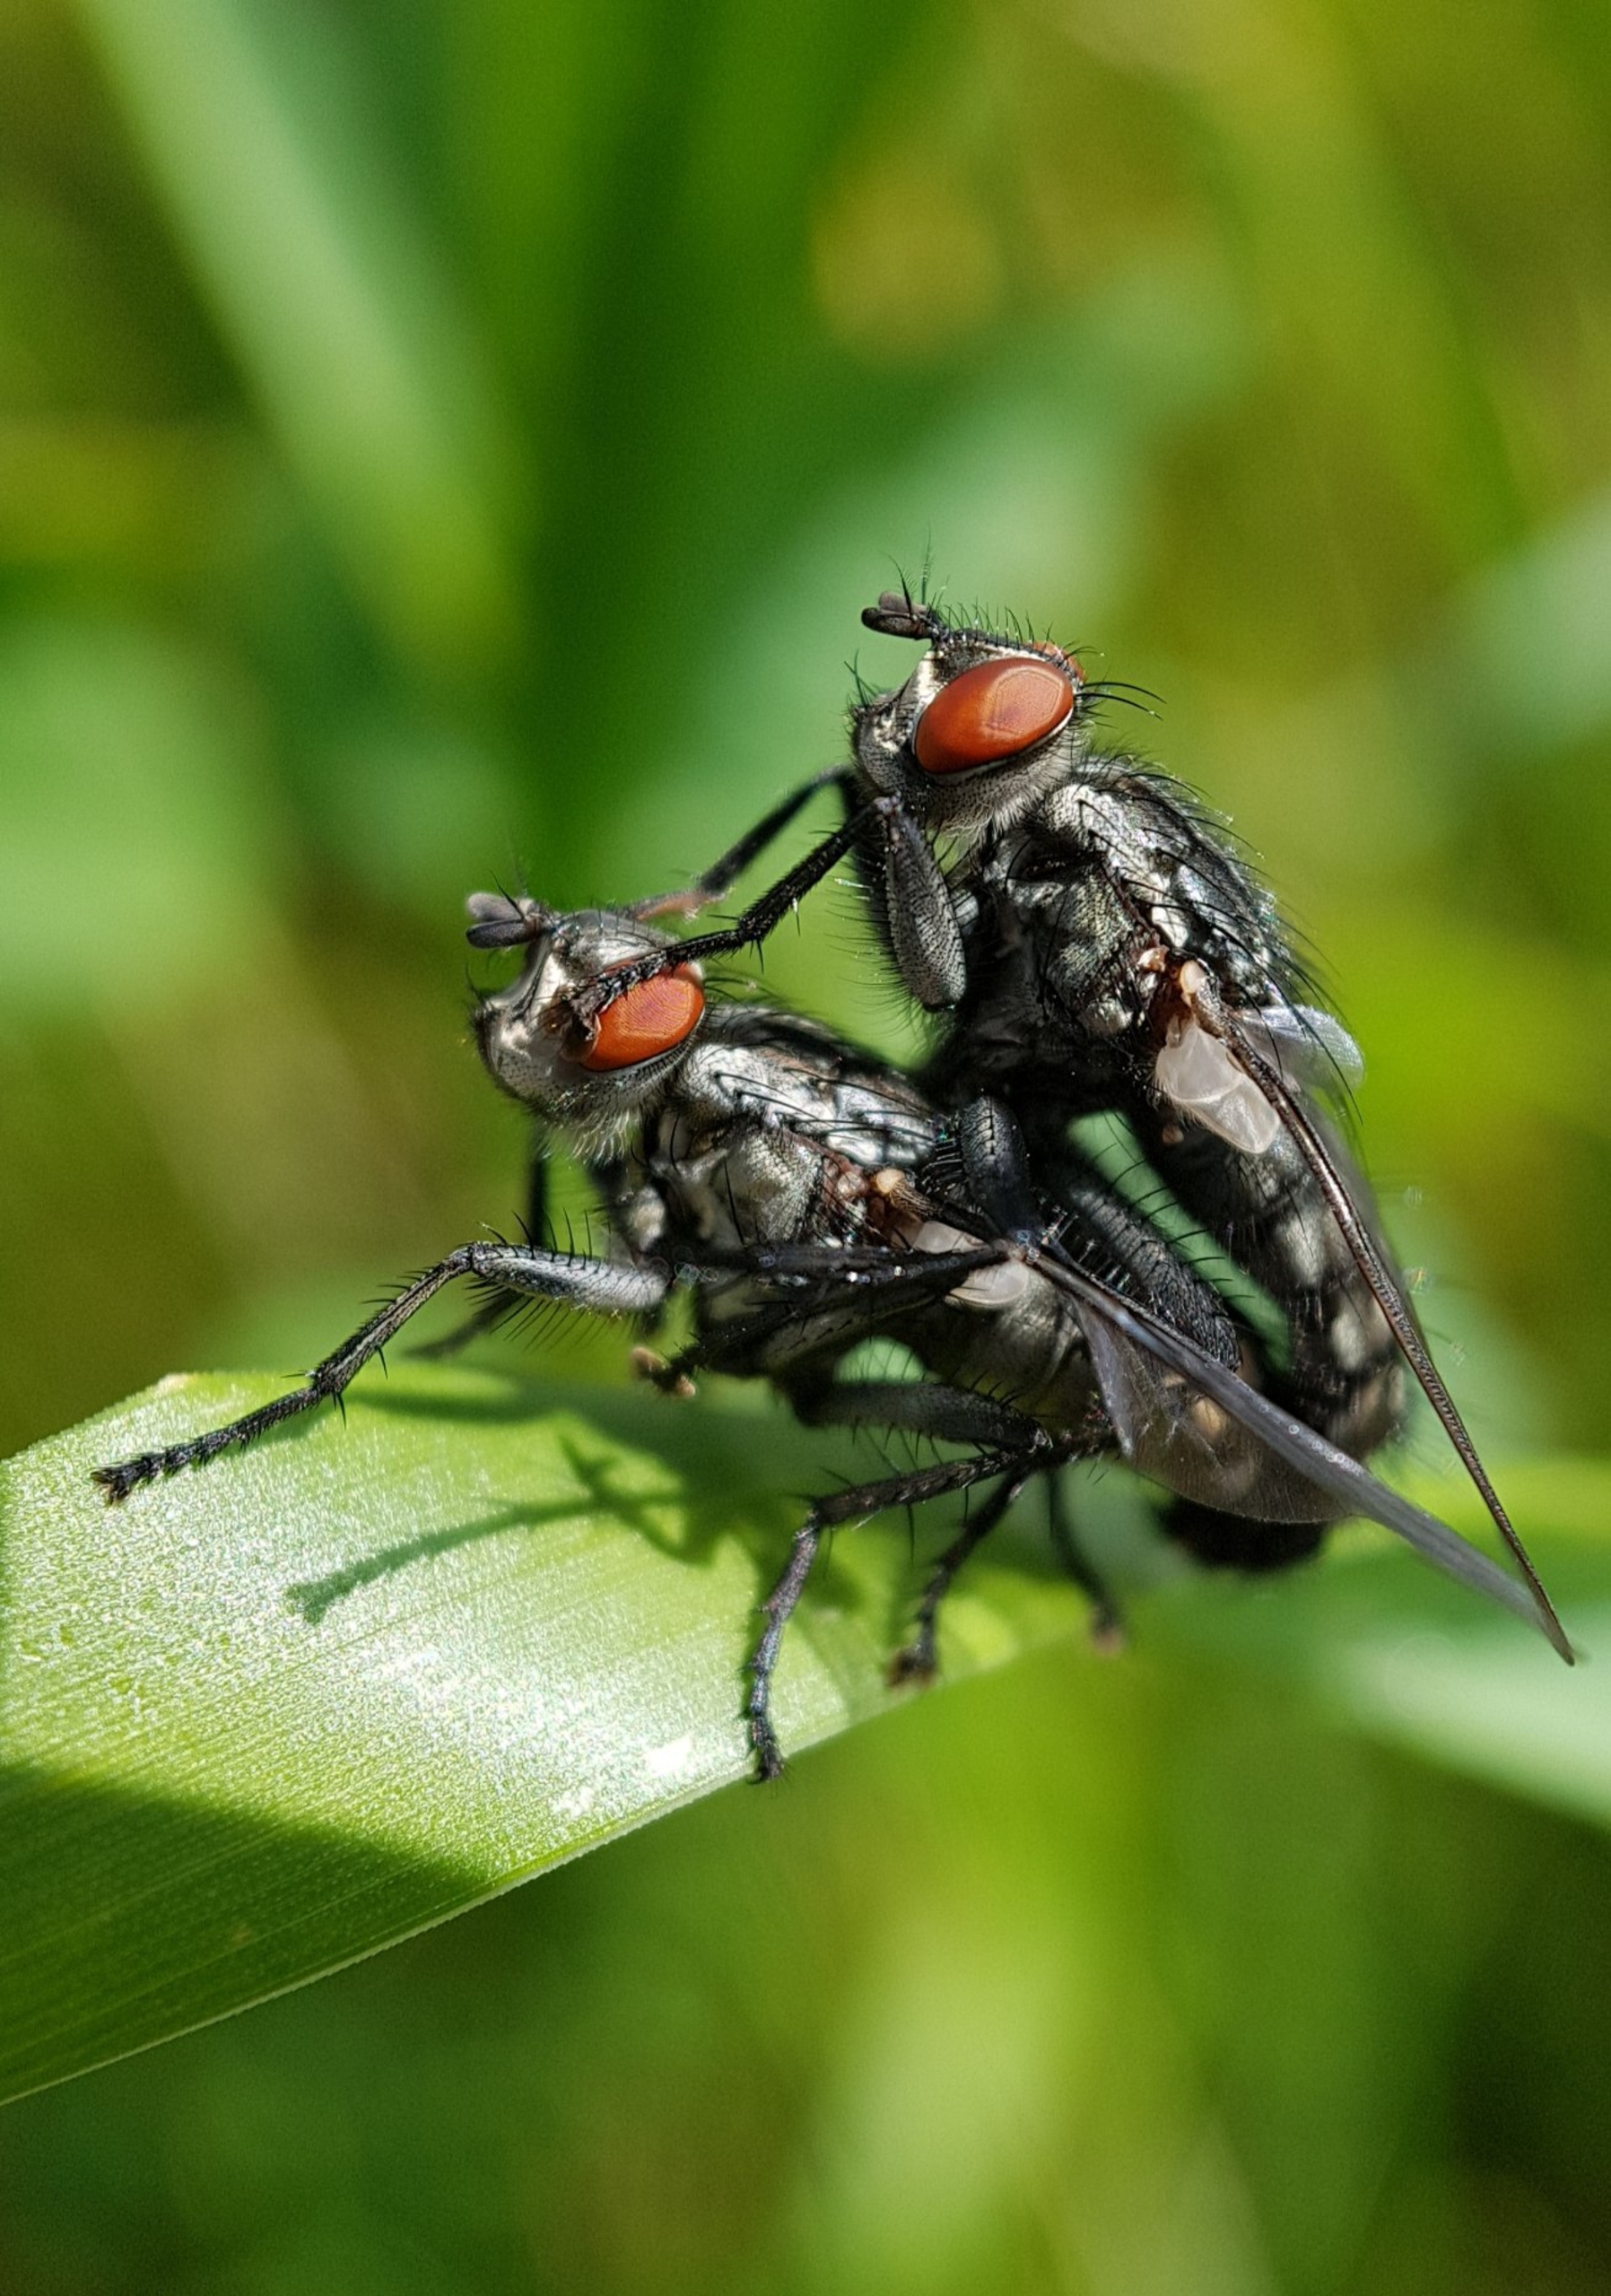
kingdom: Animalia
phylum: Arthropoda
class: Insecta
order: Diptera
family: Sarcophagidae
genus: Sarcophaga
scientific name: Sarcophaga
